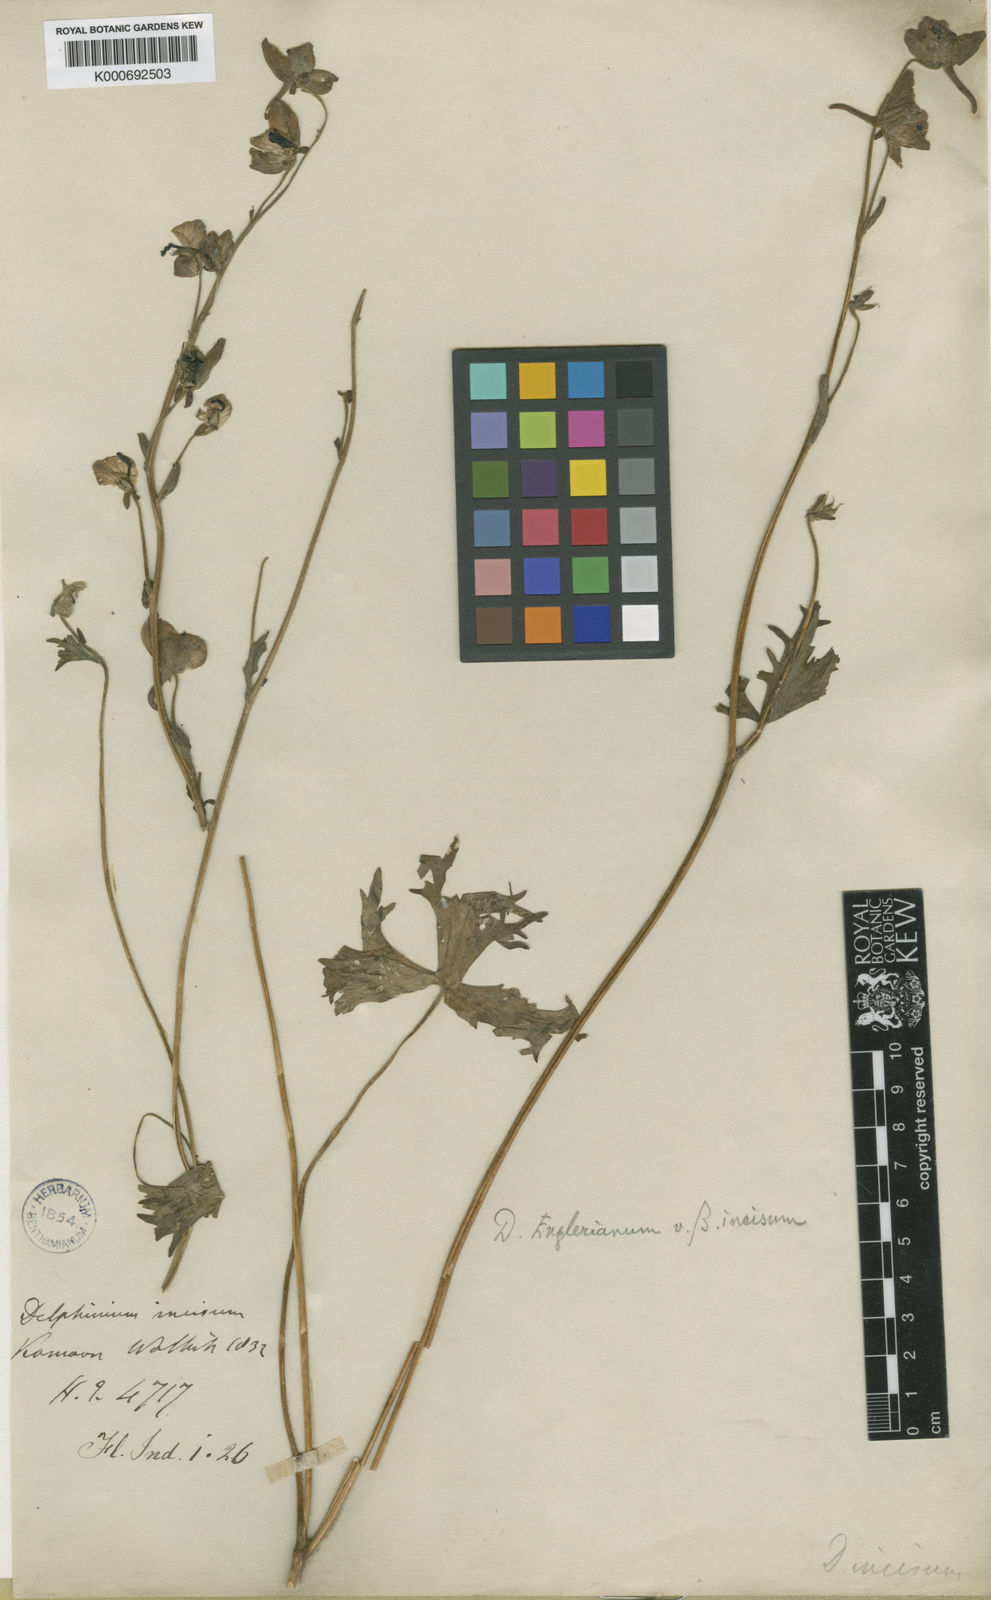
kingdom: Plantae
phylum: Tracheophyta
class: Magnoliopsida
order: Ranunculales
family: Ranunculaceae
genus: Delphinium
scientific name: Delphinium
